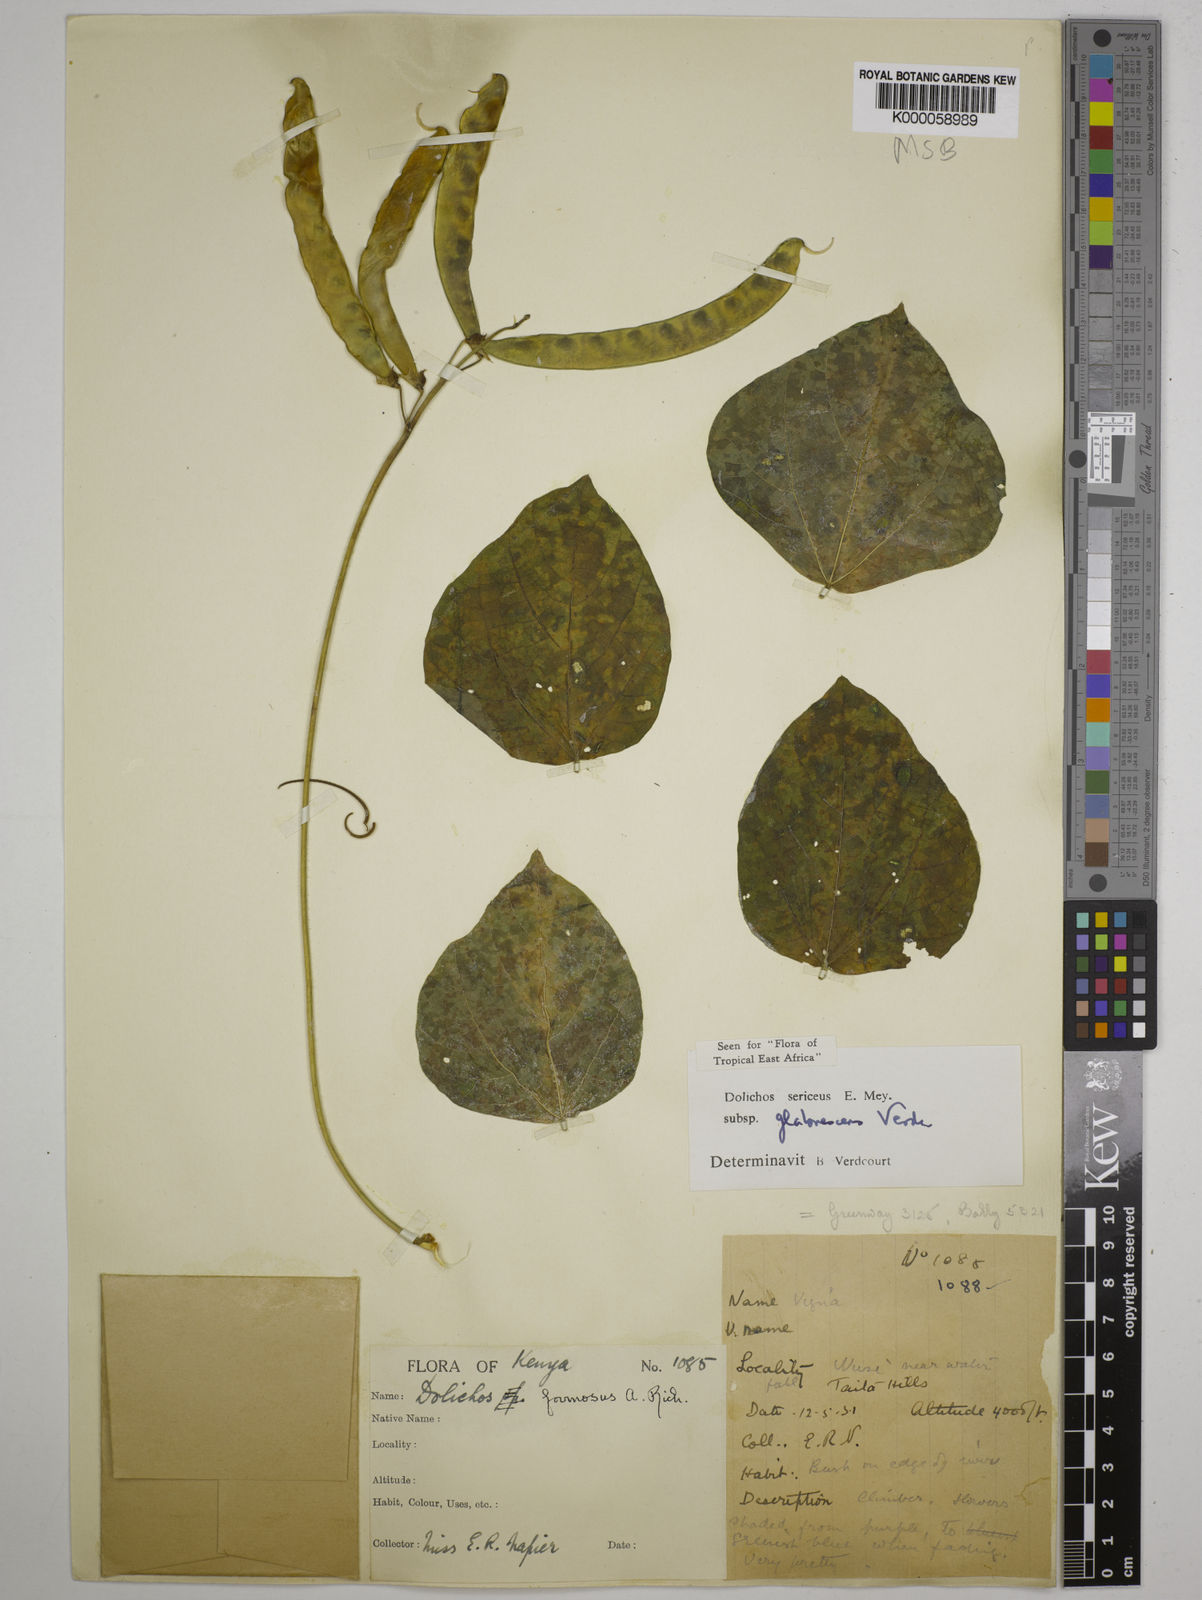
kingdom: Plantae
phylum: Tracheophyta
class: Magnoliopsida
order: Fabales
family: Fabaceae
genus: Dolichos
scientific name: Dolichos sericeus
